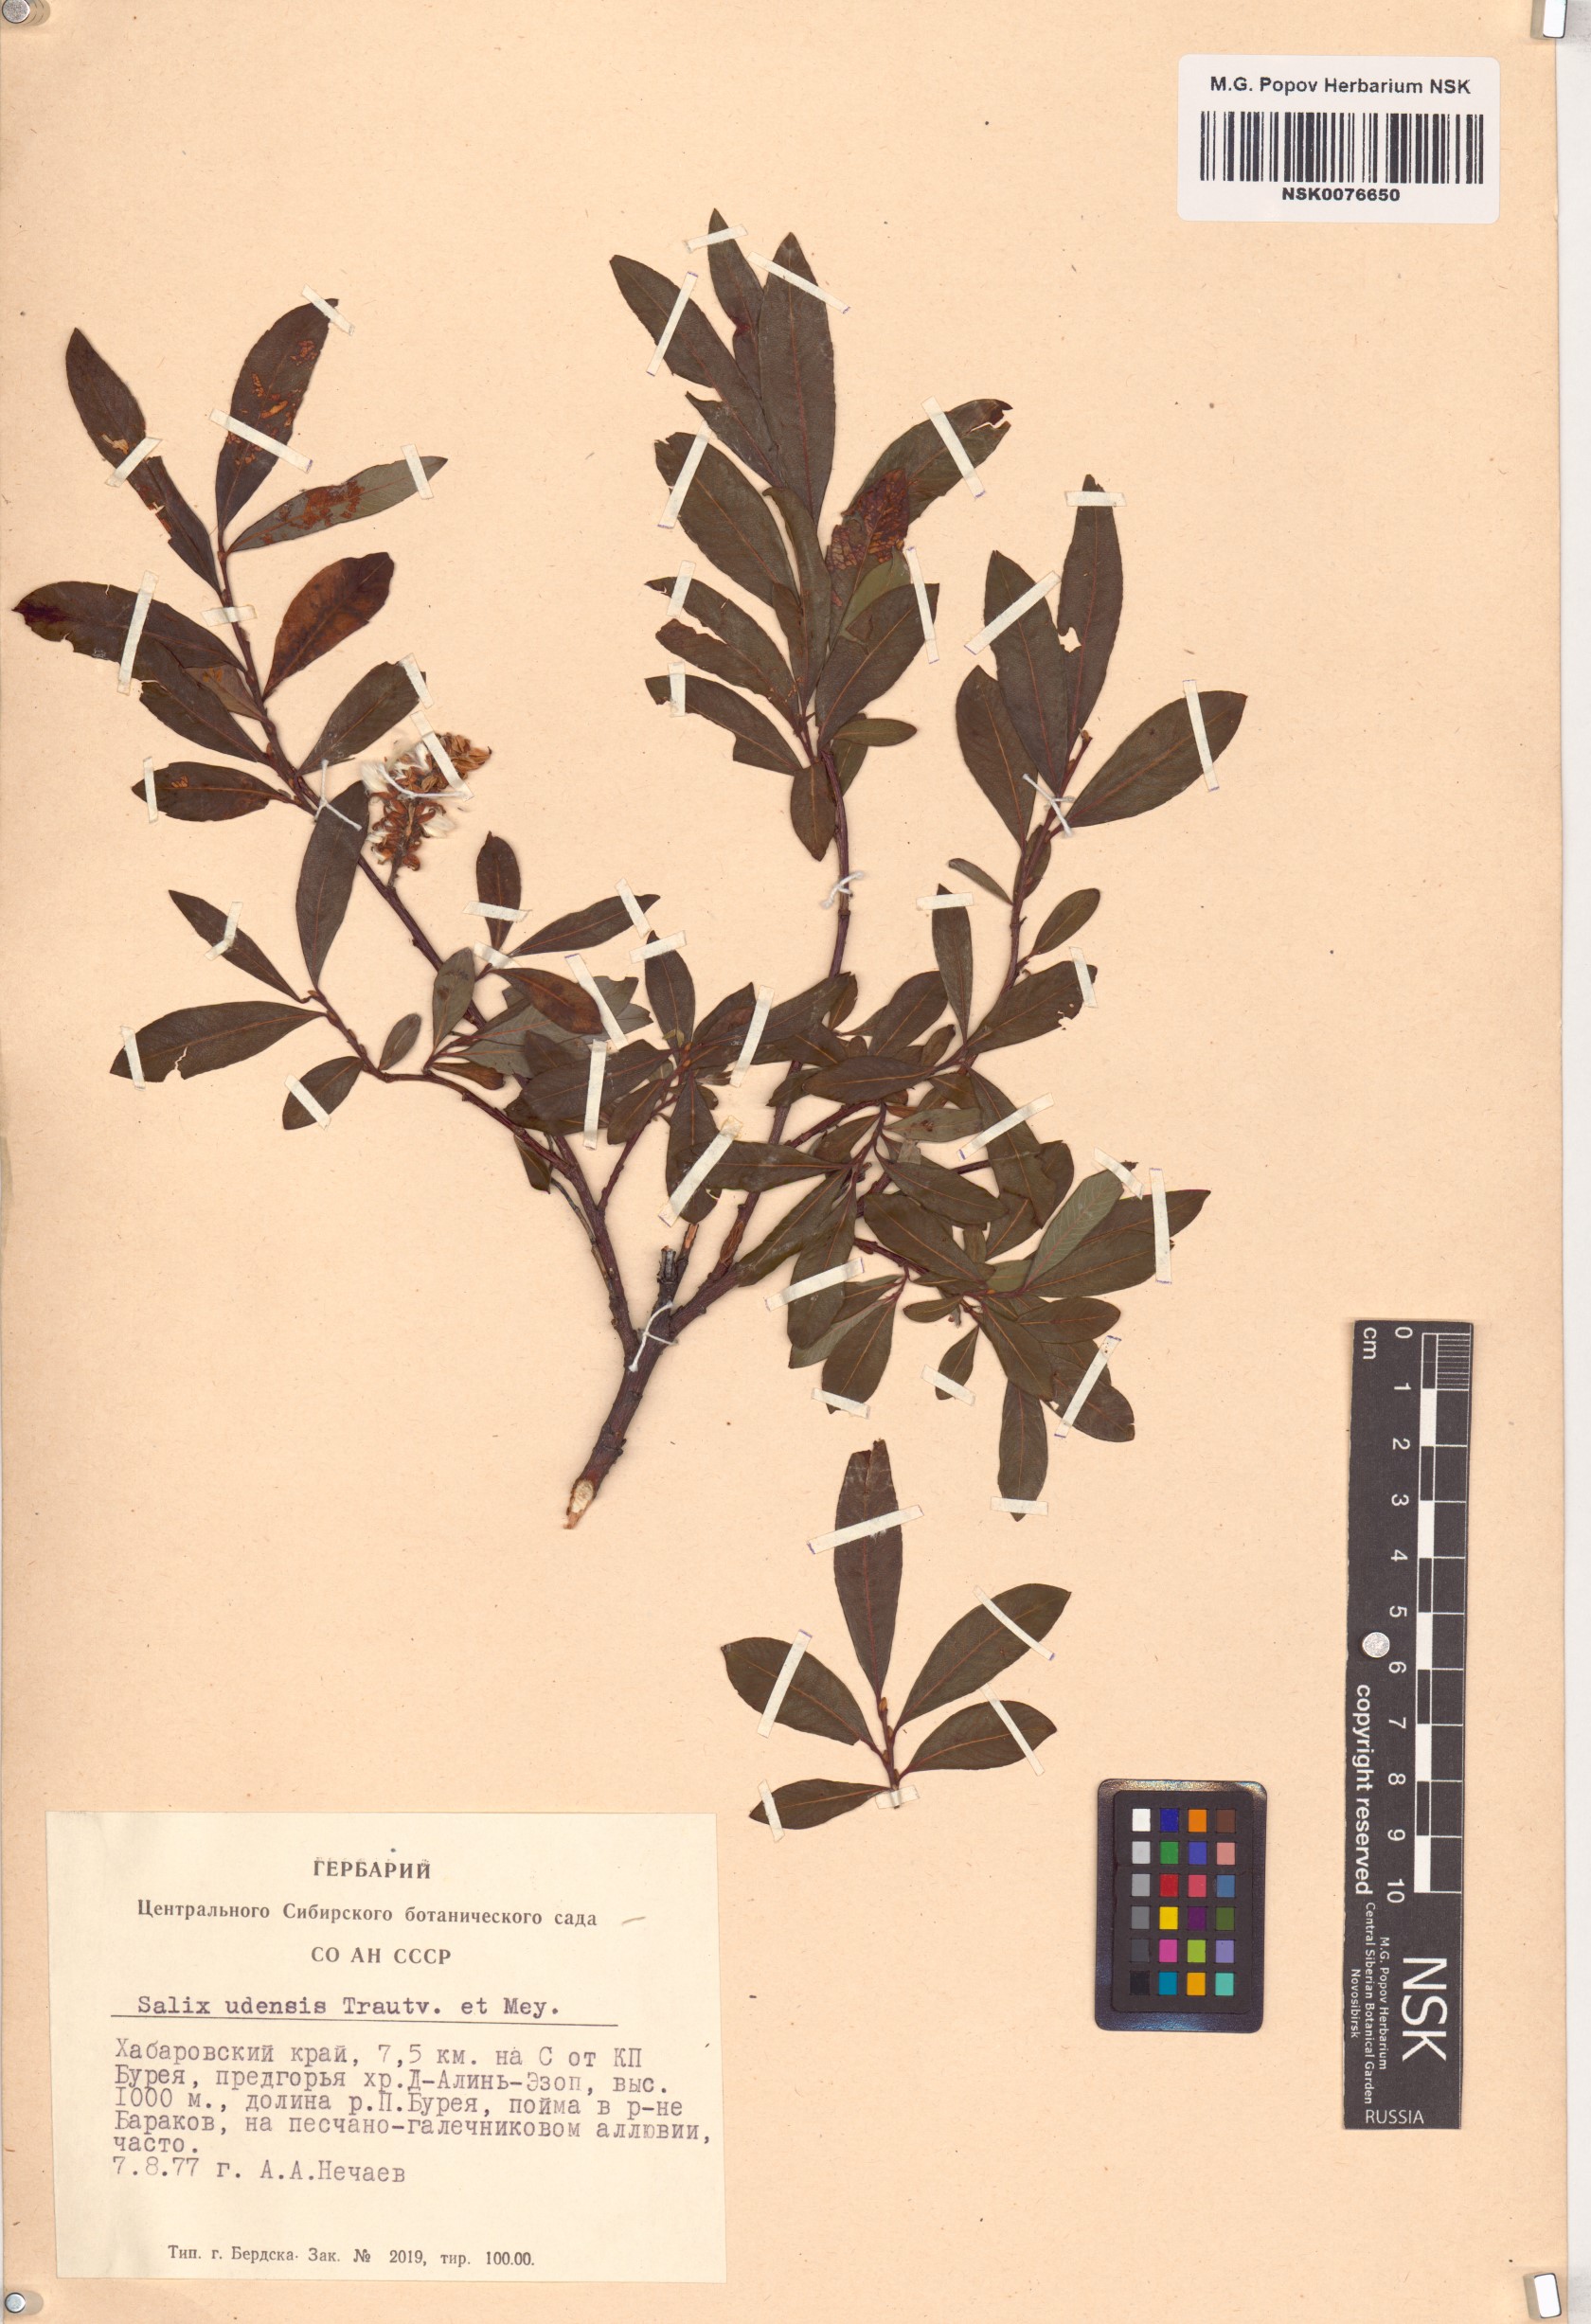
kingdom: Plantae
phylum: Tracheophyta
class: Magnoliopsida
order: Malpighiales
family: Salicaceae
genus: Salix
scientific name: Salix udensis
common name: Sachalin willow
